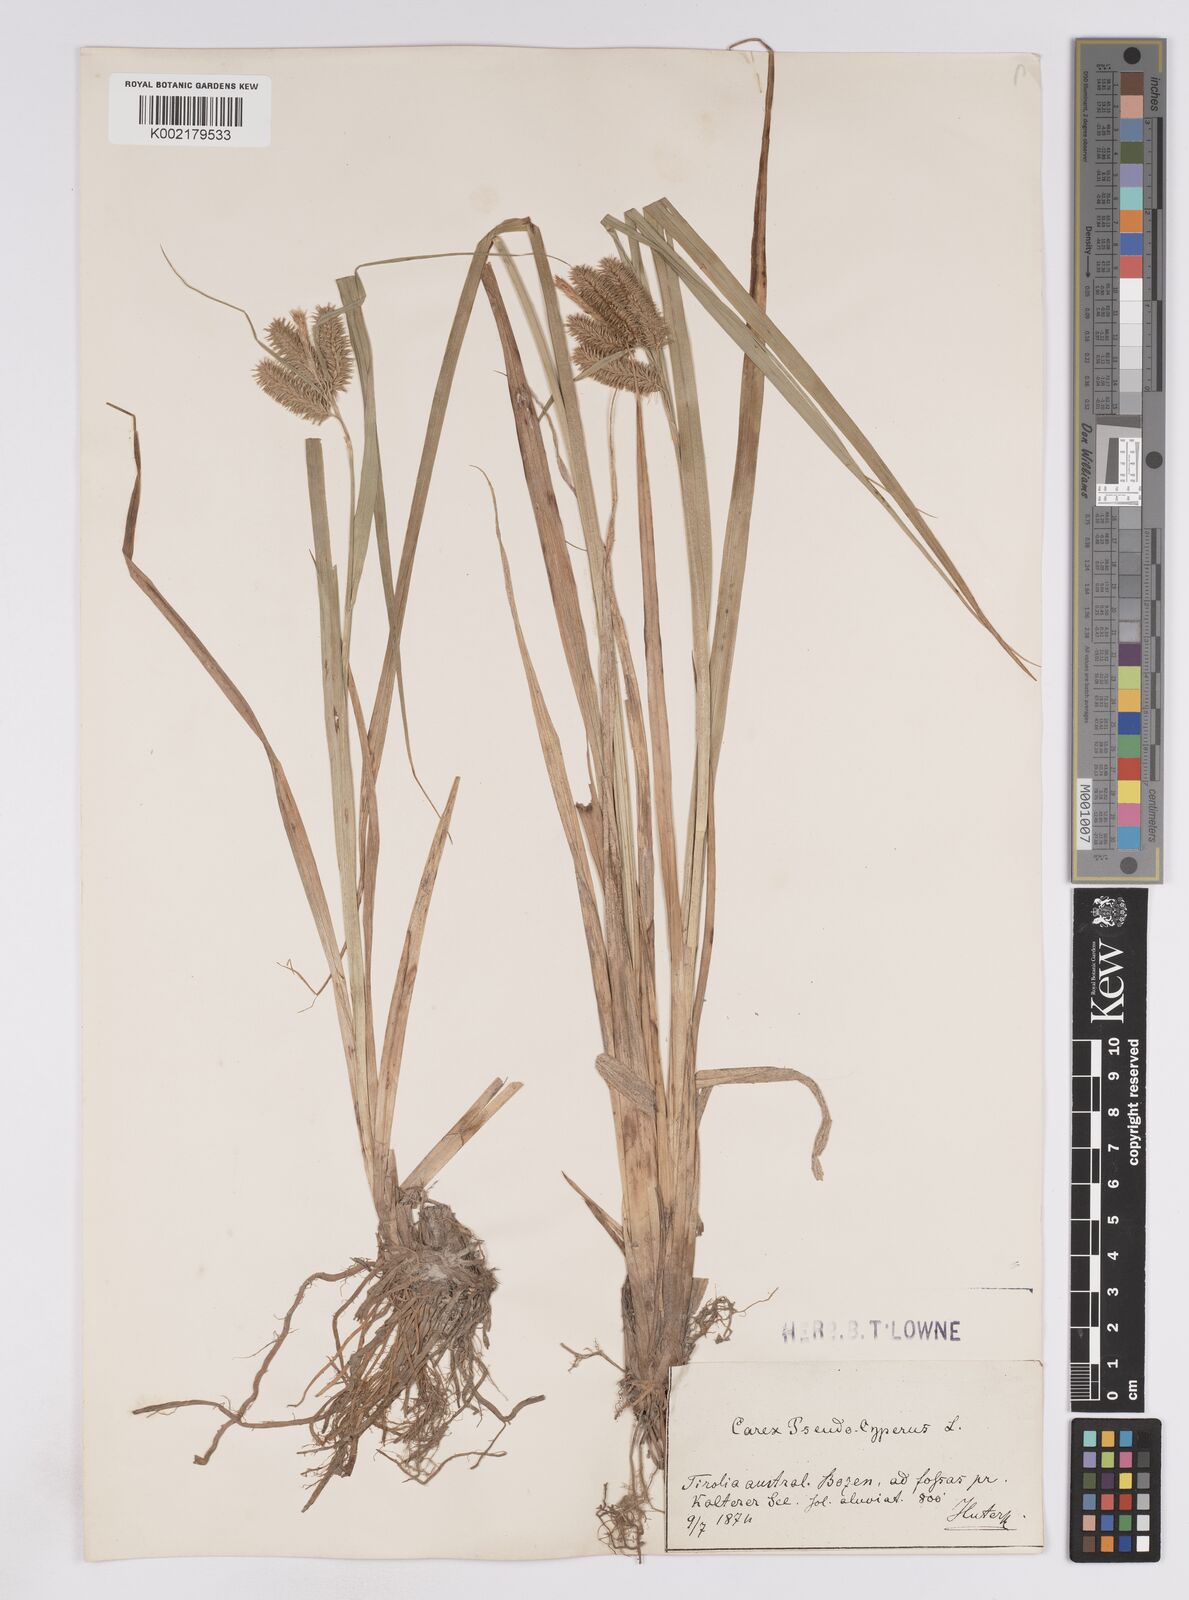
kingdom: Plantae
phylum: Tracheophyta
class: Liliopsida
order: Poales
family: Cyperaceae
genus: Carex
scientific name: Carex pseudocyperus
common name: Cyperus sedge
